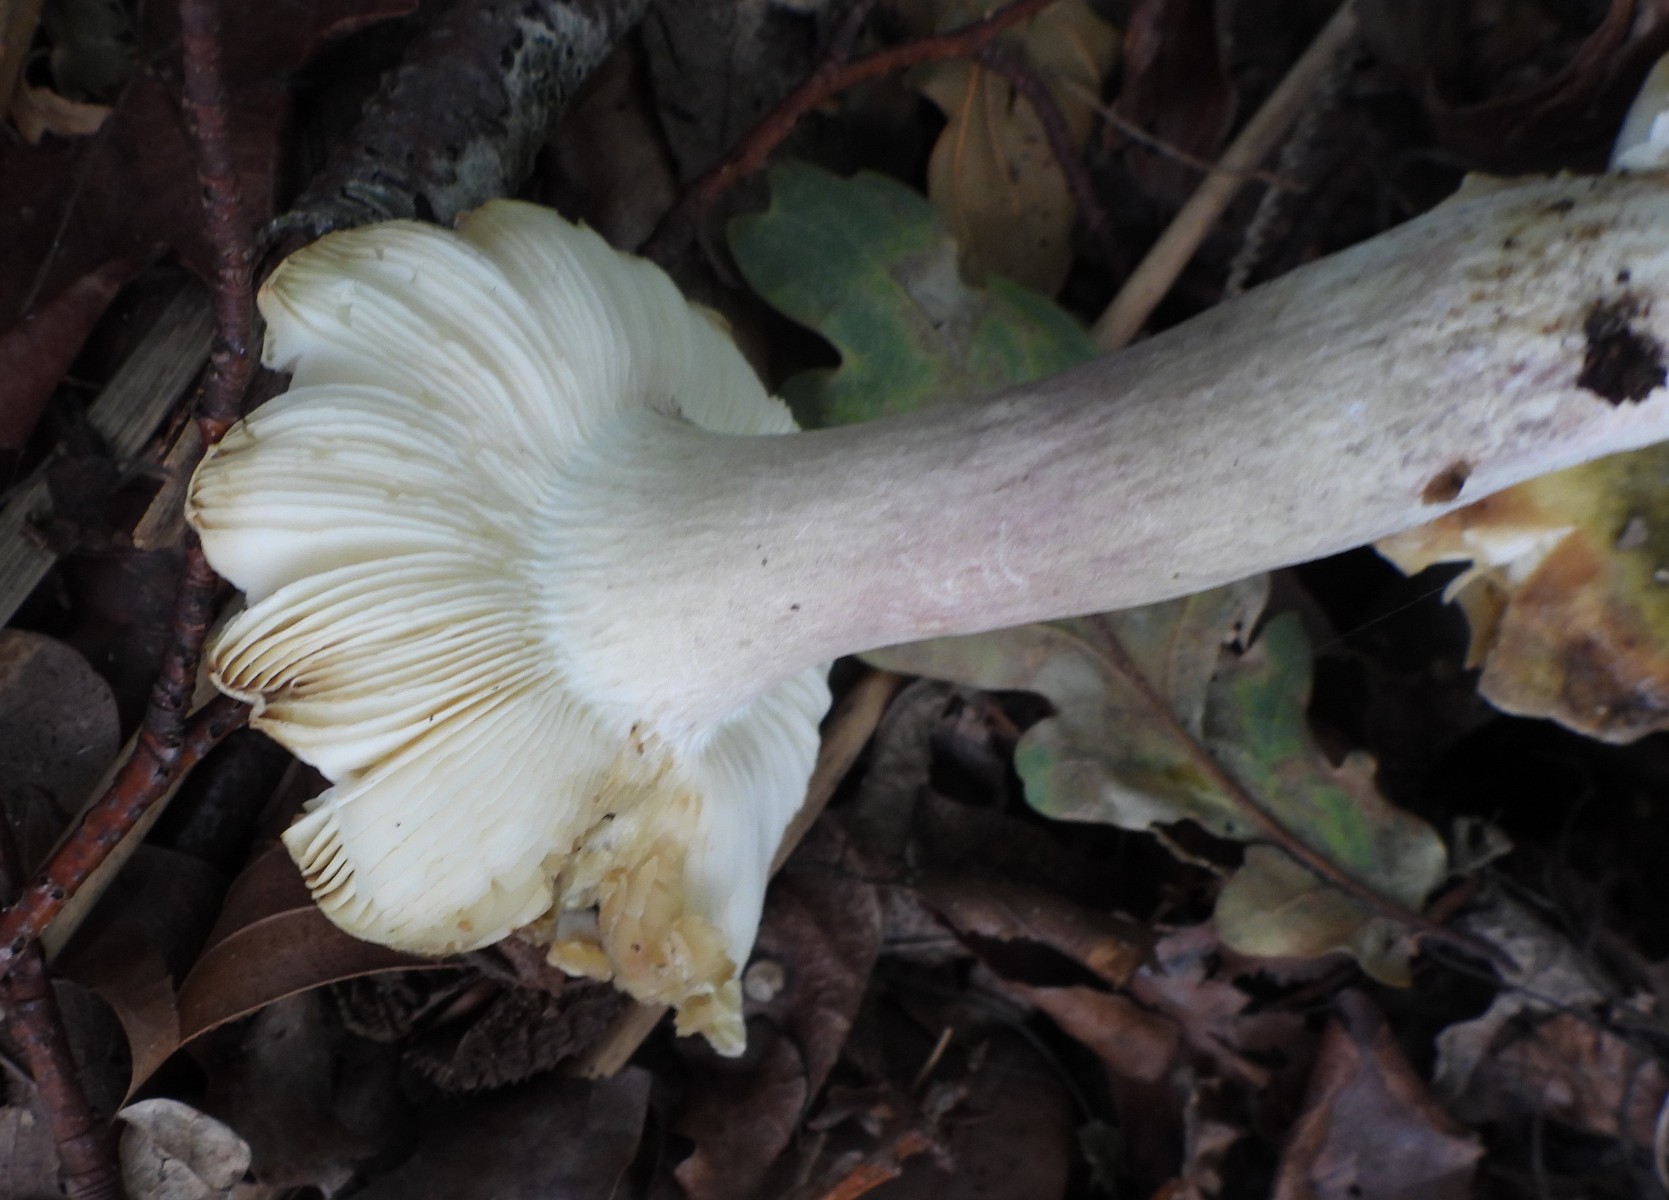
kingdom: Fungi
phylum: Basidiomycota
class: Agaricomycetes
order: Russulales
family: Russulaceae
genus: Russula
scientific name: Russula violeipes
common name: ferskengul skørhat
